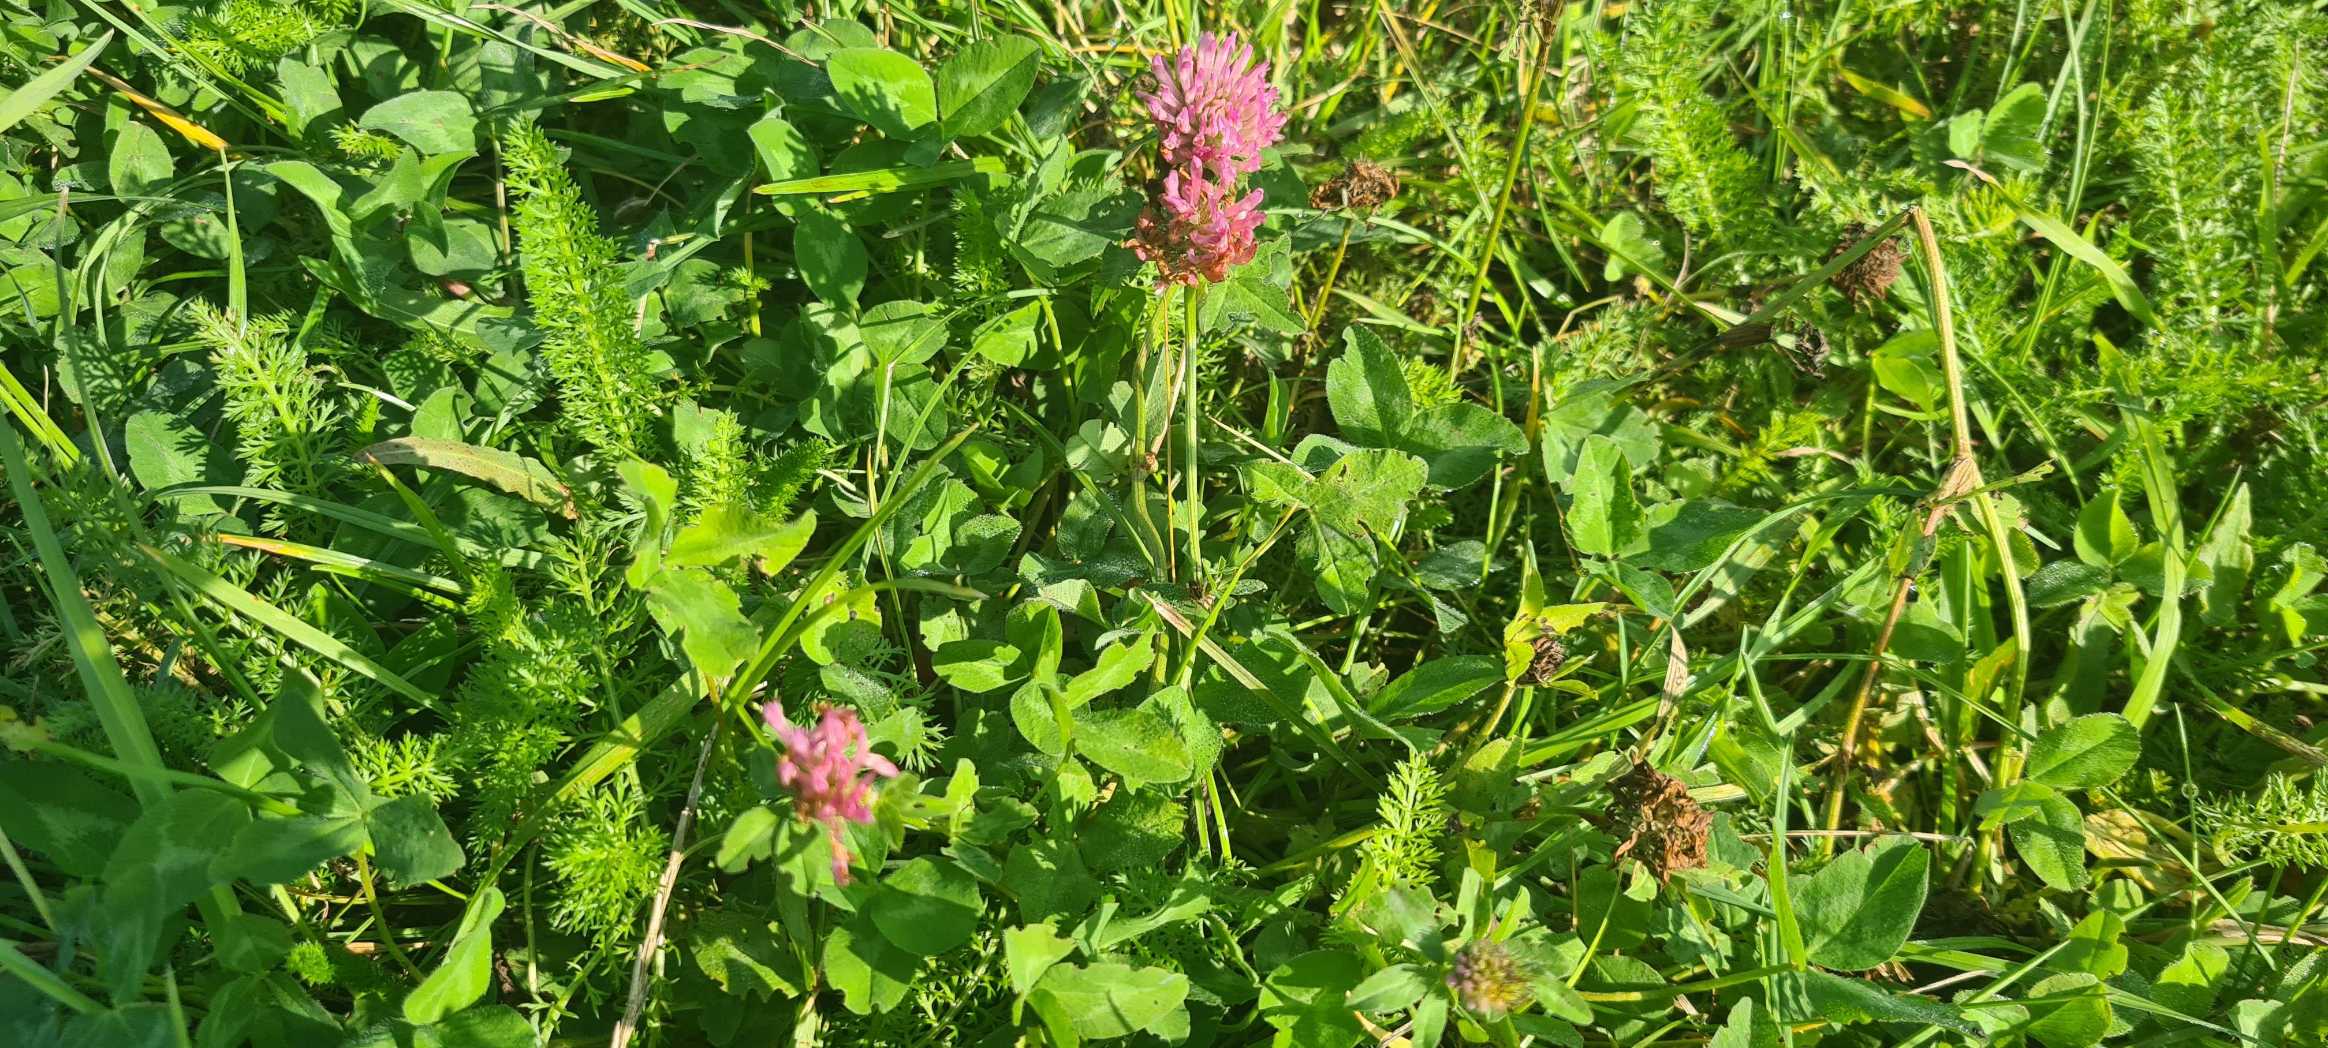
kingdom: Plantae
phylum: Tracheophyta
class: Magnoliopsida
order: Fabales
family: Fabaceae
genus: Trifolium
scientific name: Trifolium pratense
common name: Rød-kløver
